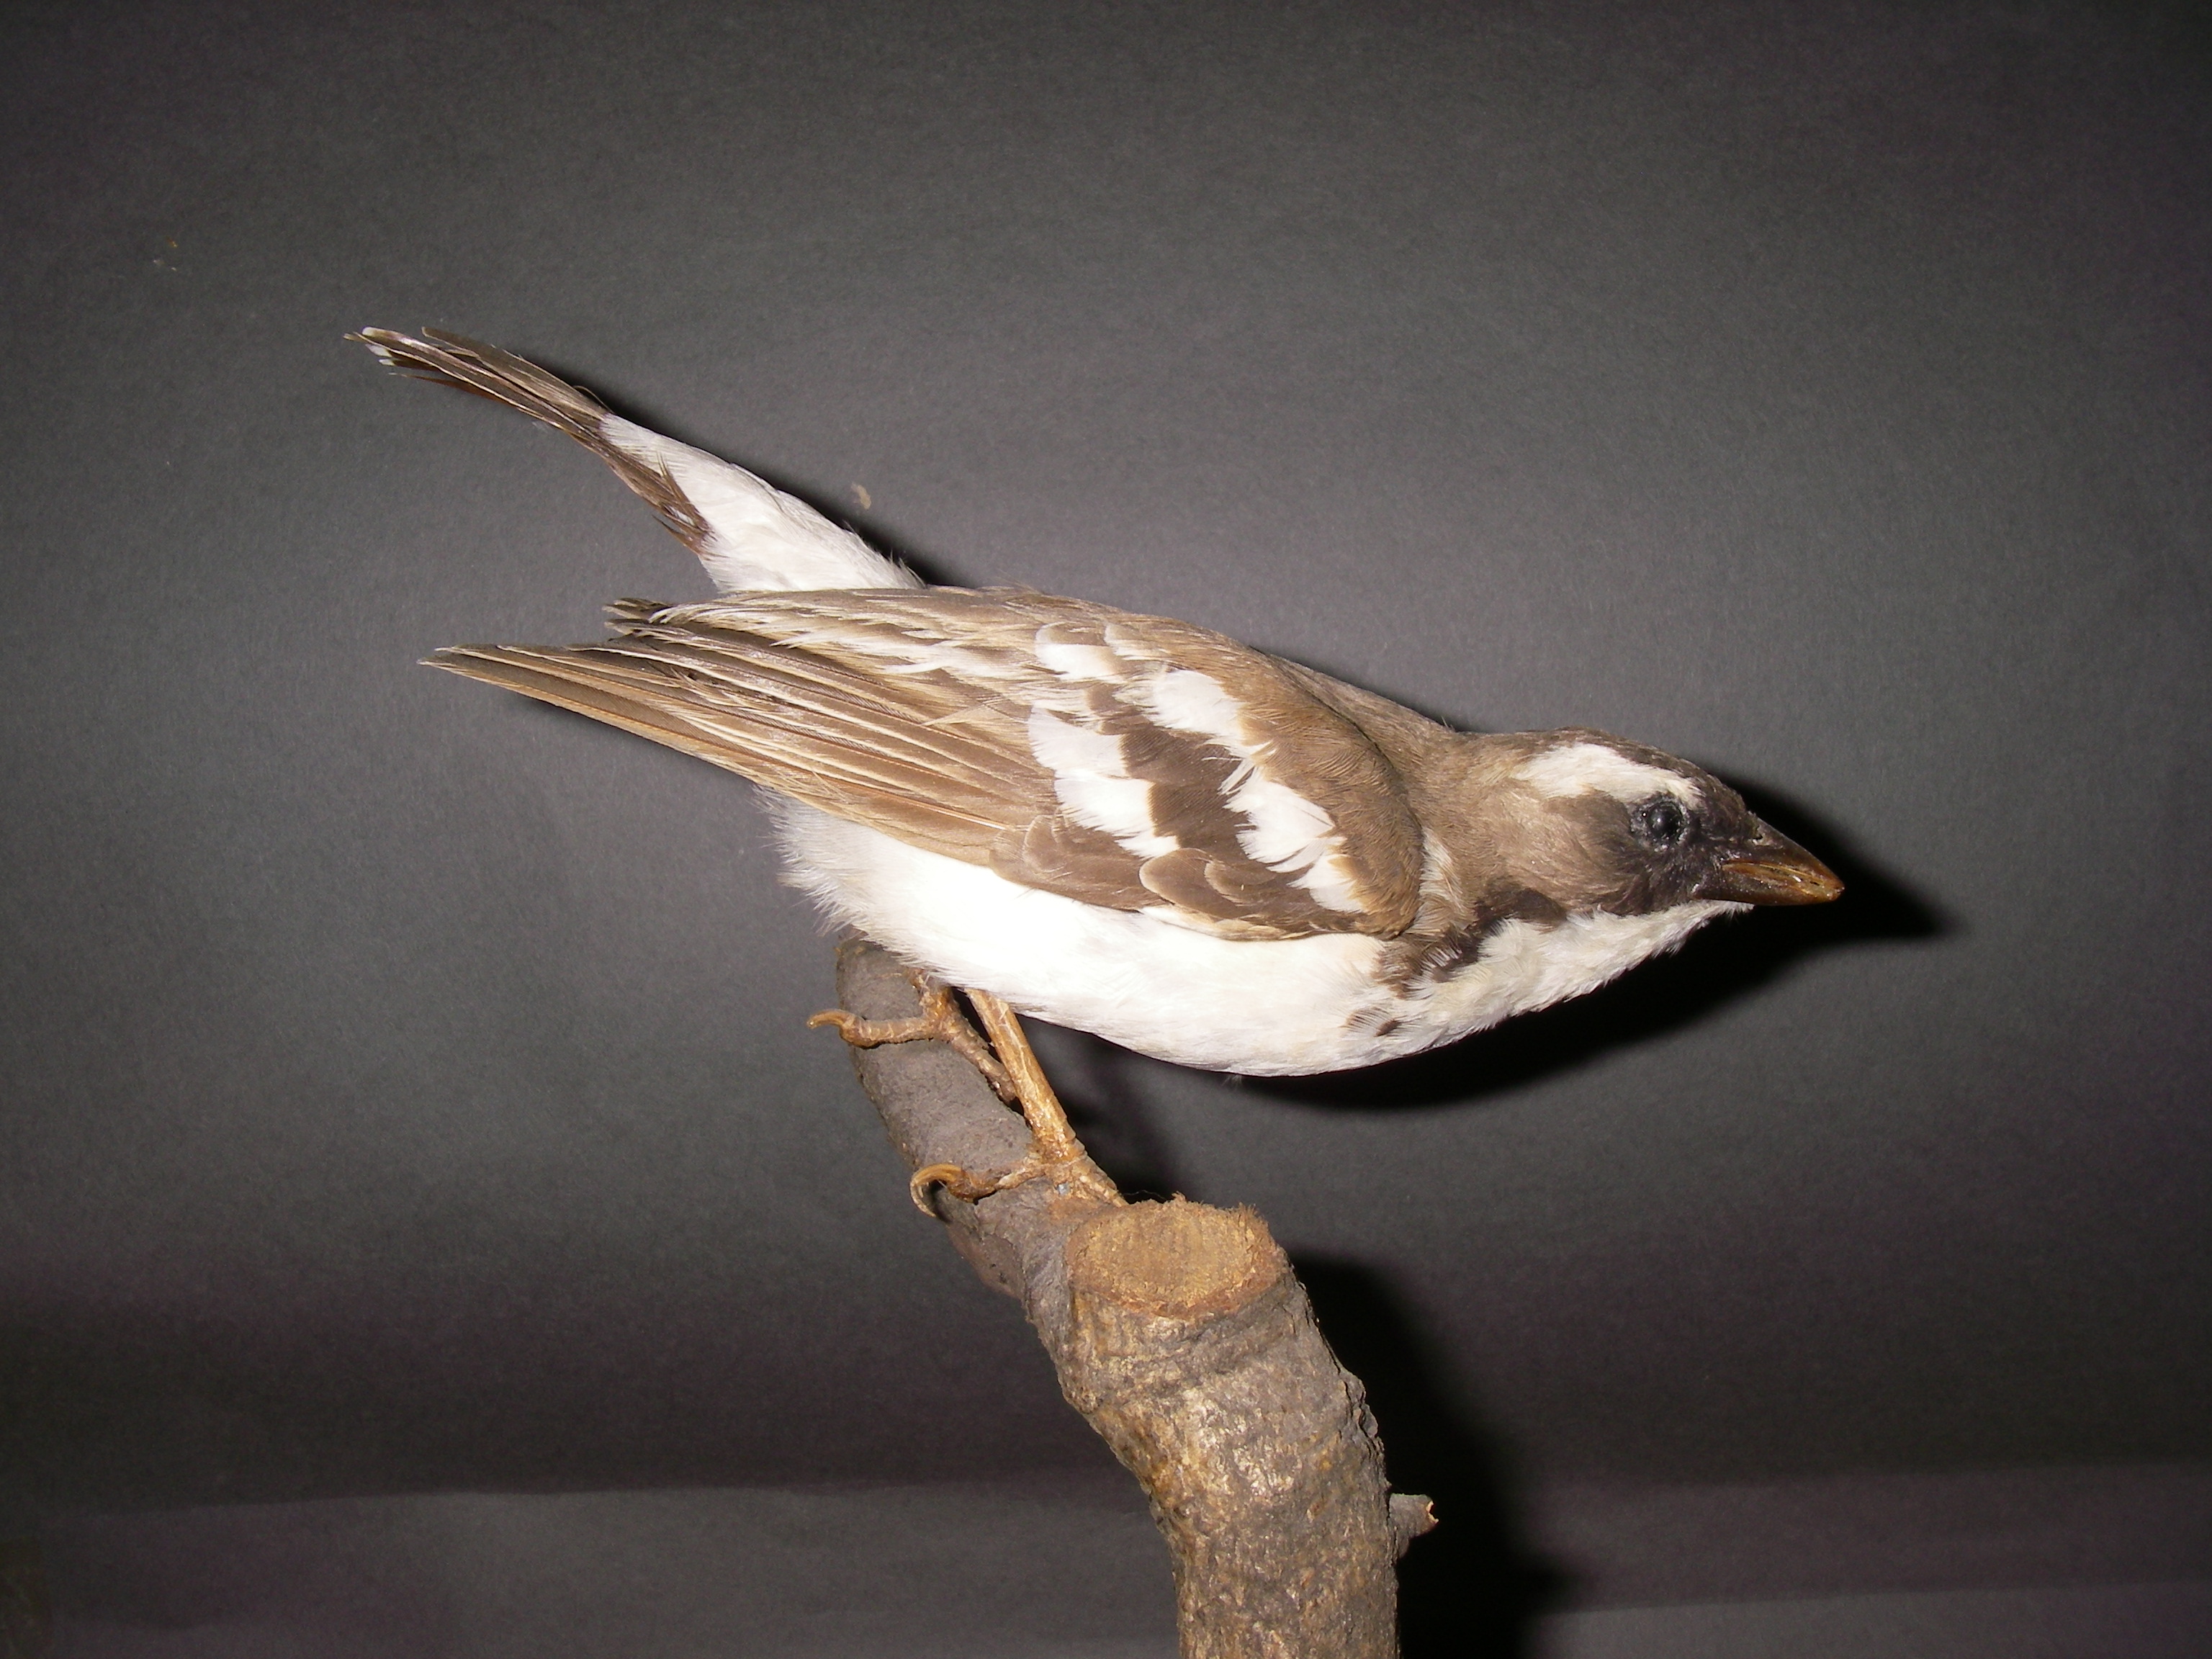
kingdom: Animalia
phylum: Chordata
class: Aves
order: Passeriformes
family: Passeridae
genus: Plocepasser
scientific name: Plocepasser mahali
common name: White-browed sparrow-weaver
